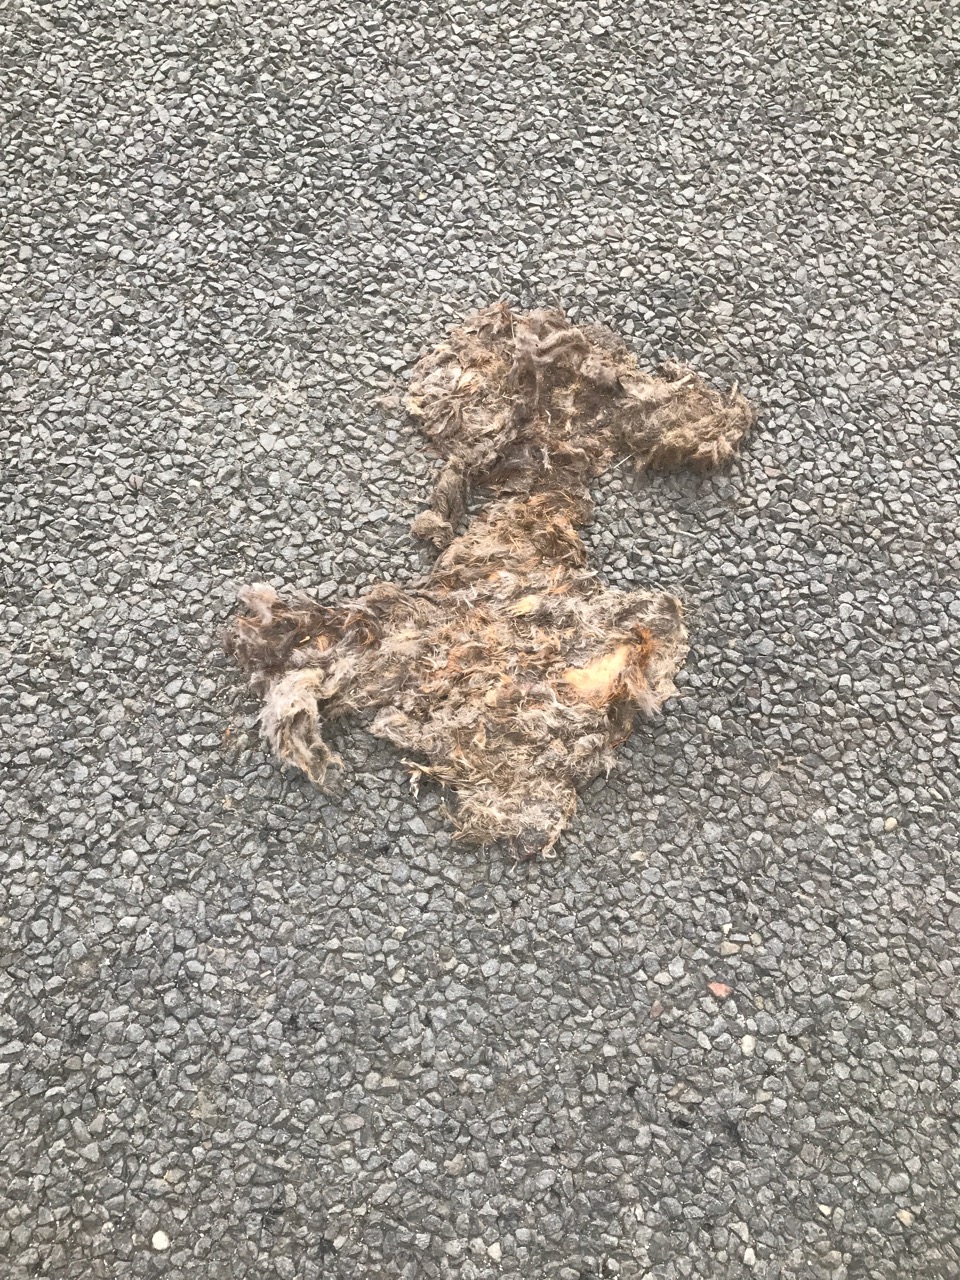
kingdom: Animalia
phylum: Chordata
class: Mammalia
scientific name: Mammalia
